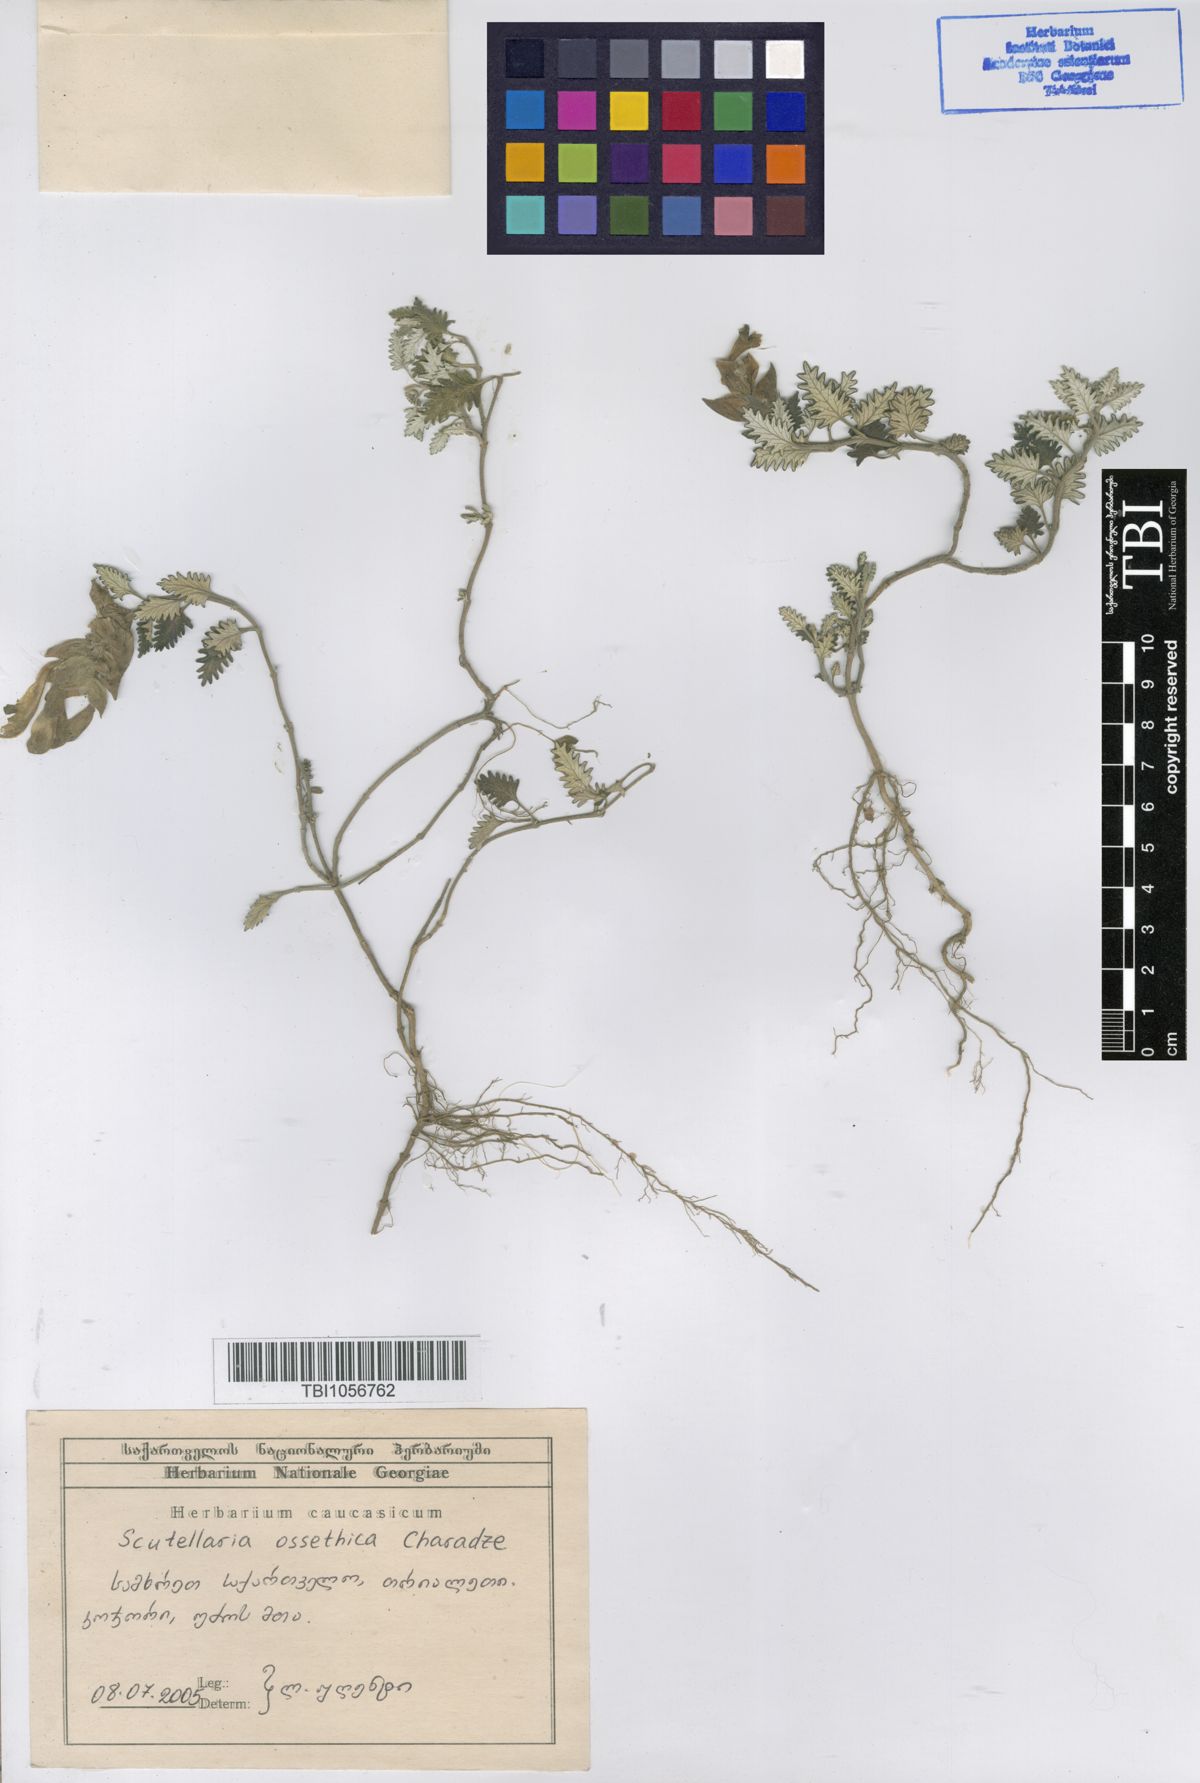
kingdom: Plantae
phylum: Tracheophyta
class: Magnoliopsida
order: Lamiales
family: Lamiaceae
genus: Scutellaria
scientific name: Scutellaria ossethica
